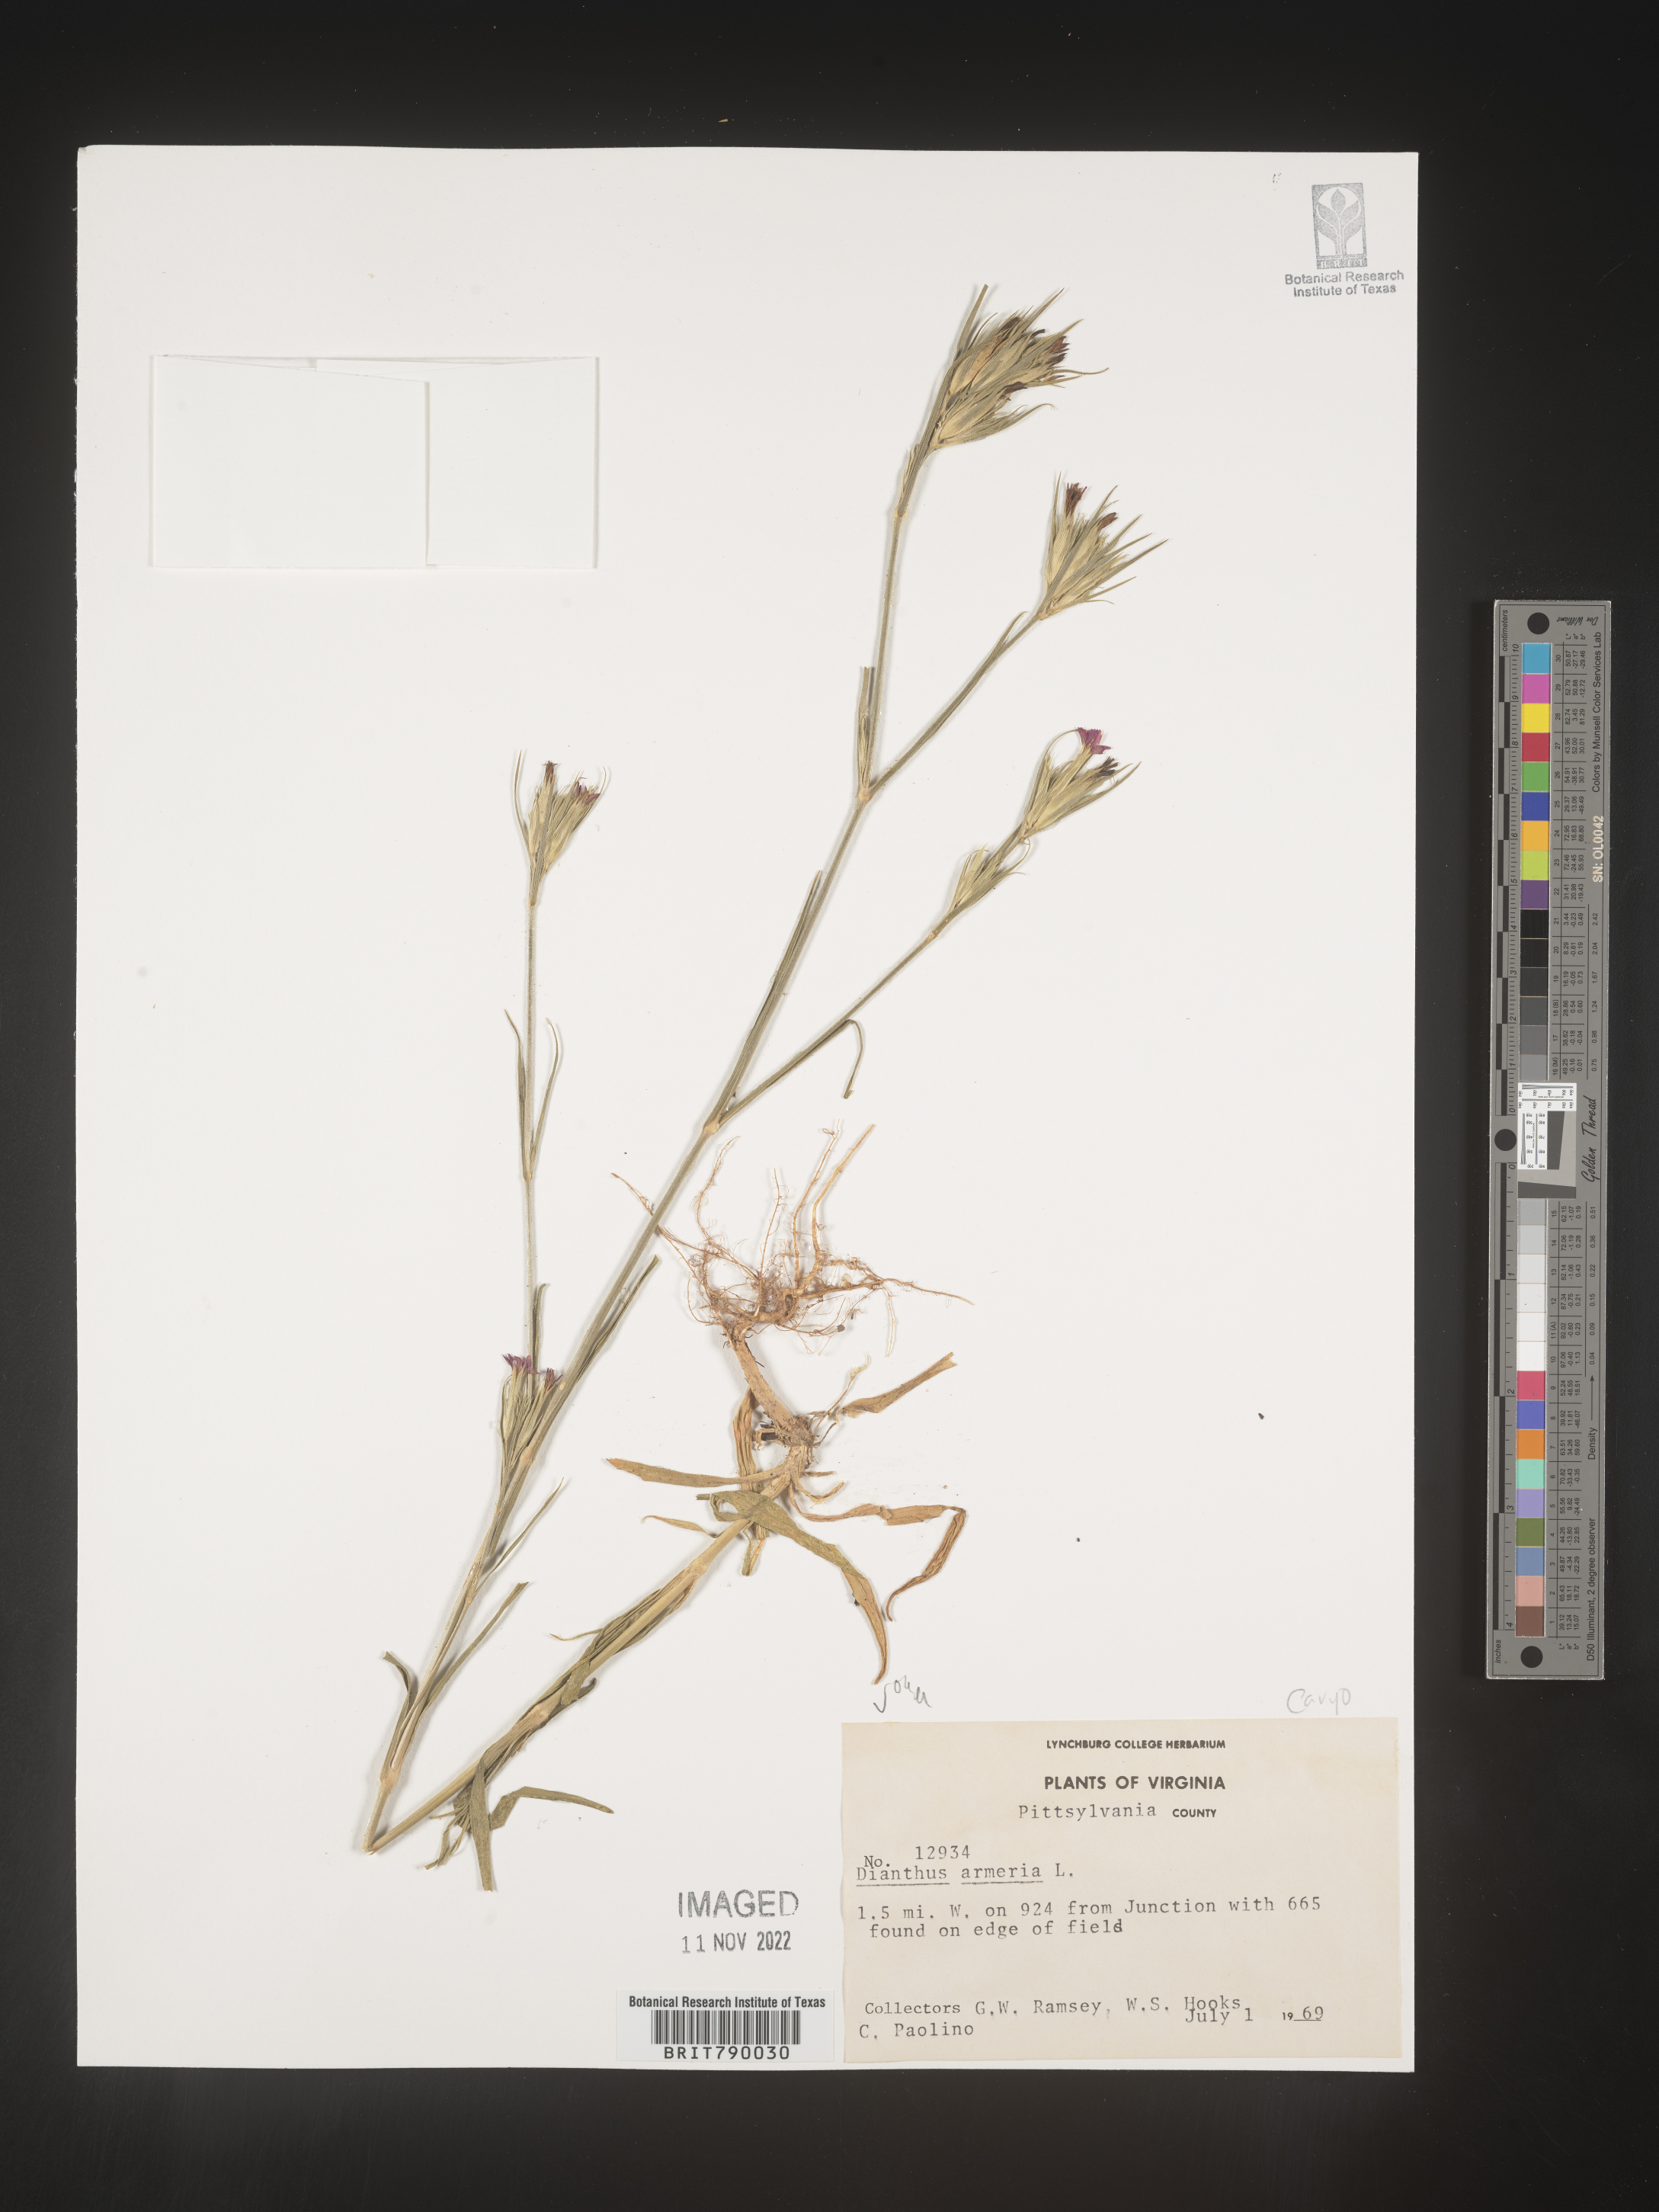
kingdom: Plantae
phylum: Tracheophyta
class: Magnoliopsida
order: Caryophyllales
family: Caryophyllaceae
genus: Dianthus
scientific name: Dianthus armeria
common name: Deptford pink
